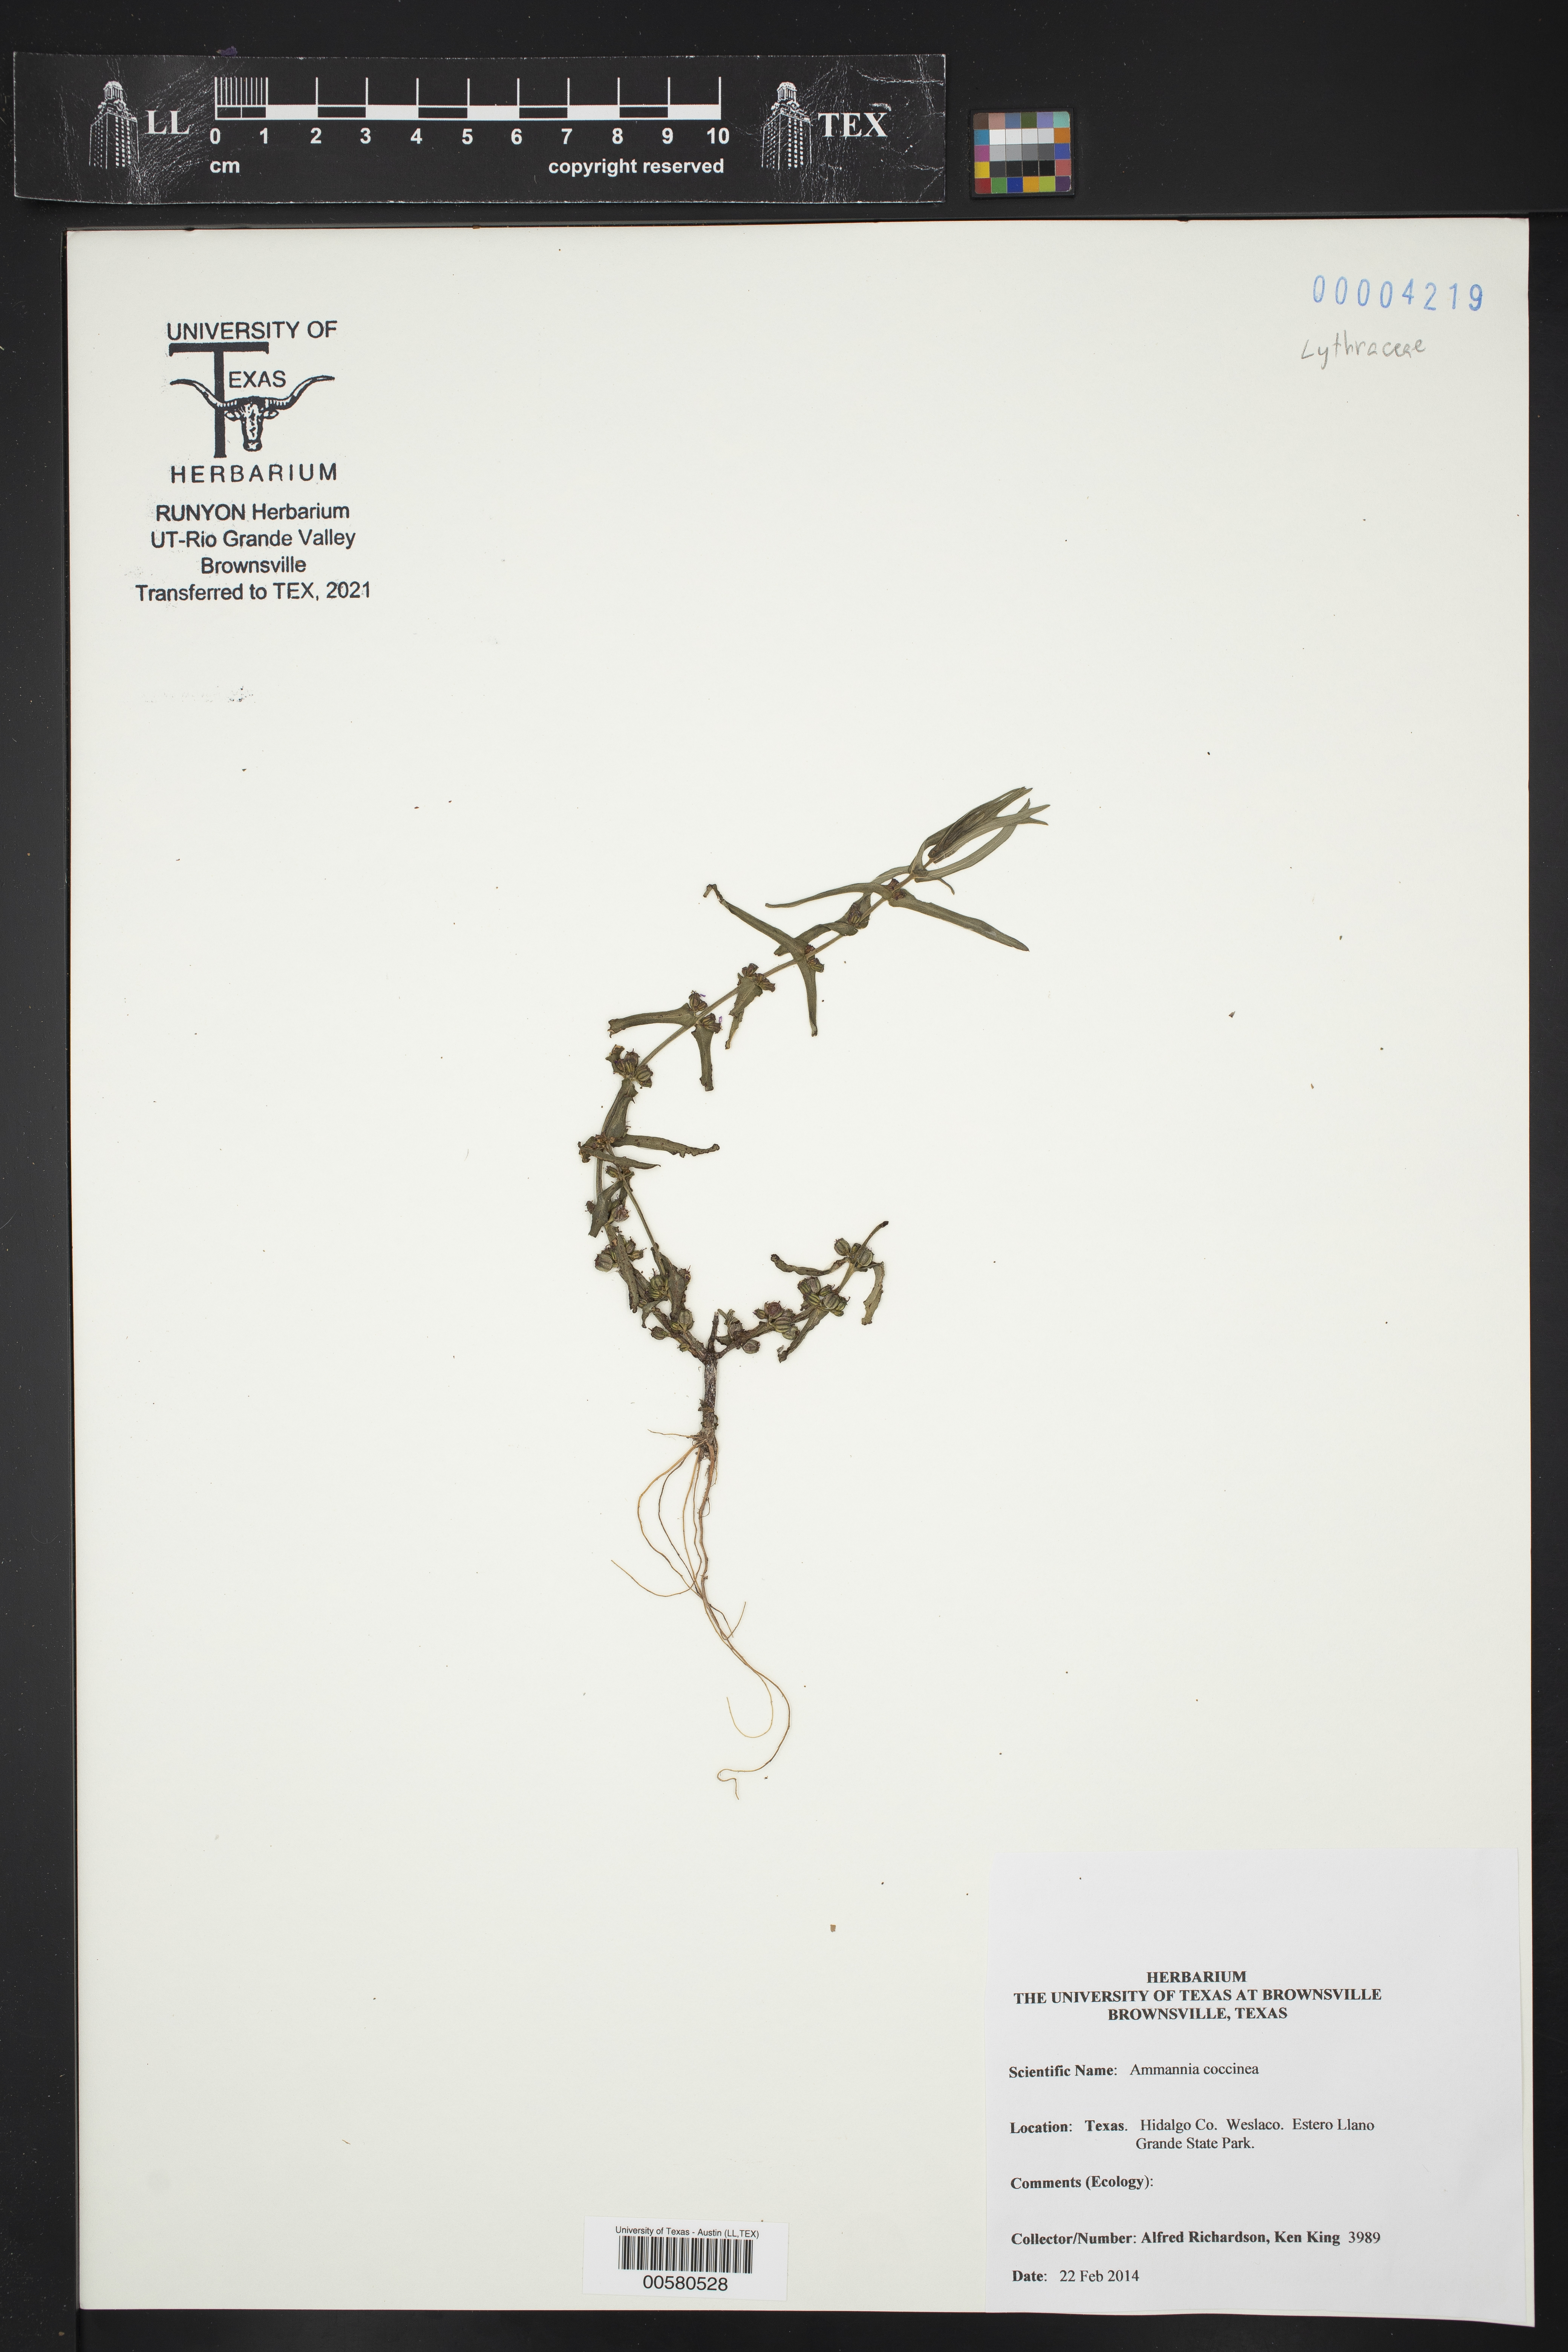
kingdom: Plantae
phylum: Tracheophyta
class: Magnoliopsida
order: Myrtales
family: Lythraceae
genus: Ammannia
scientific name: Ammannia coccinea
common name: Valley redstem
